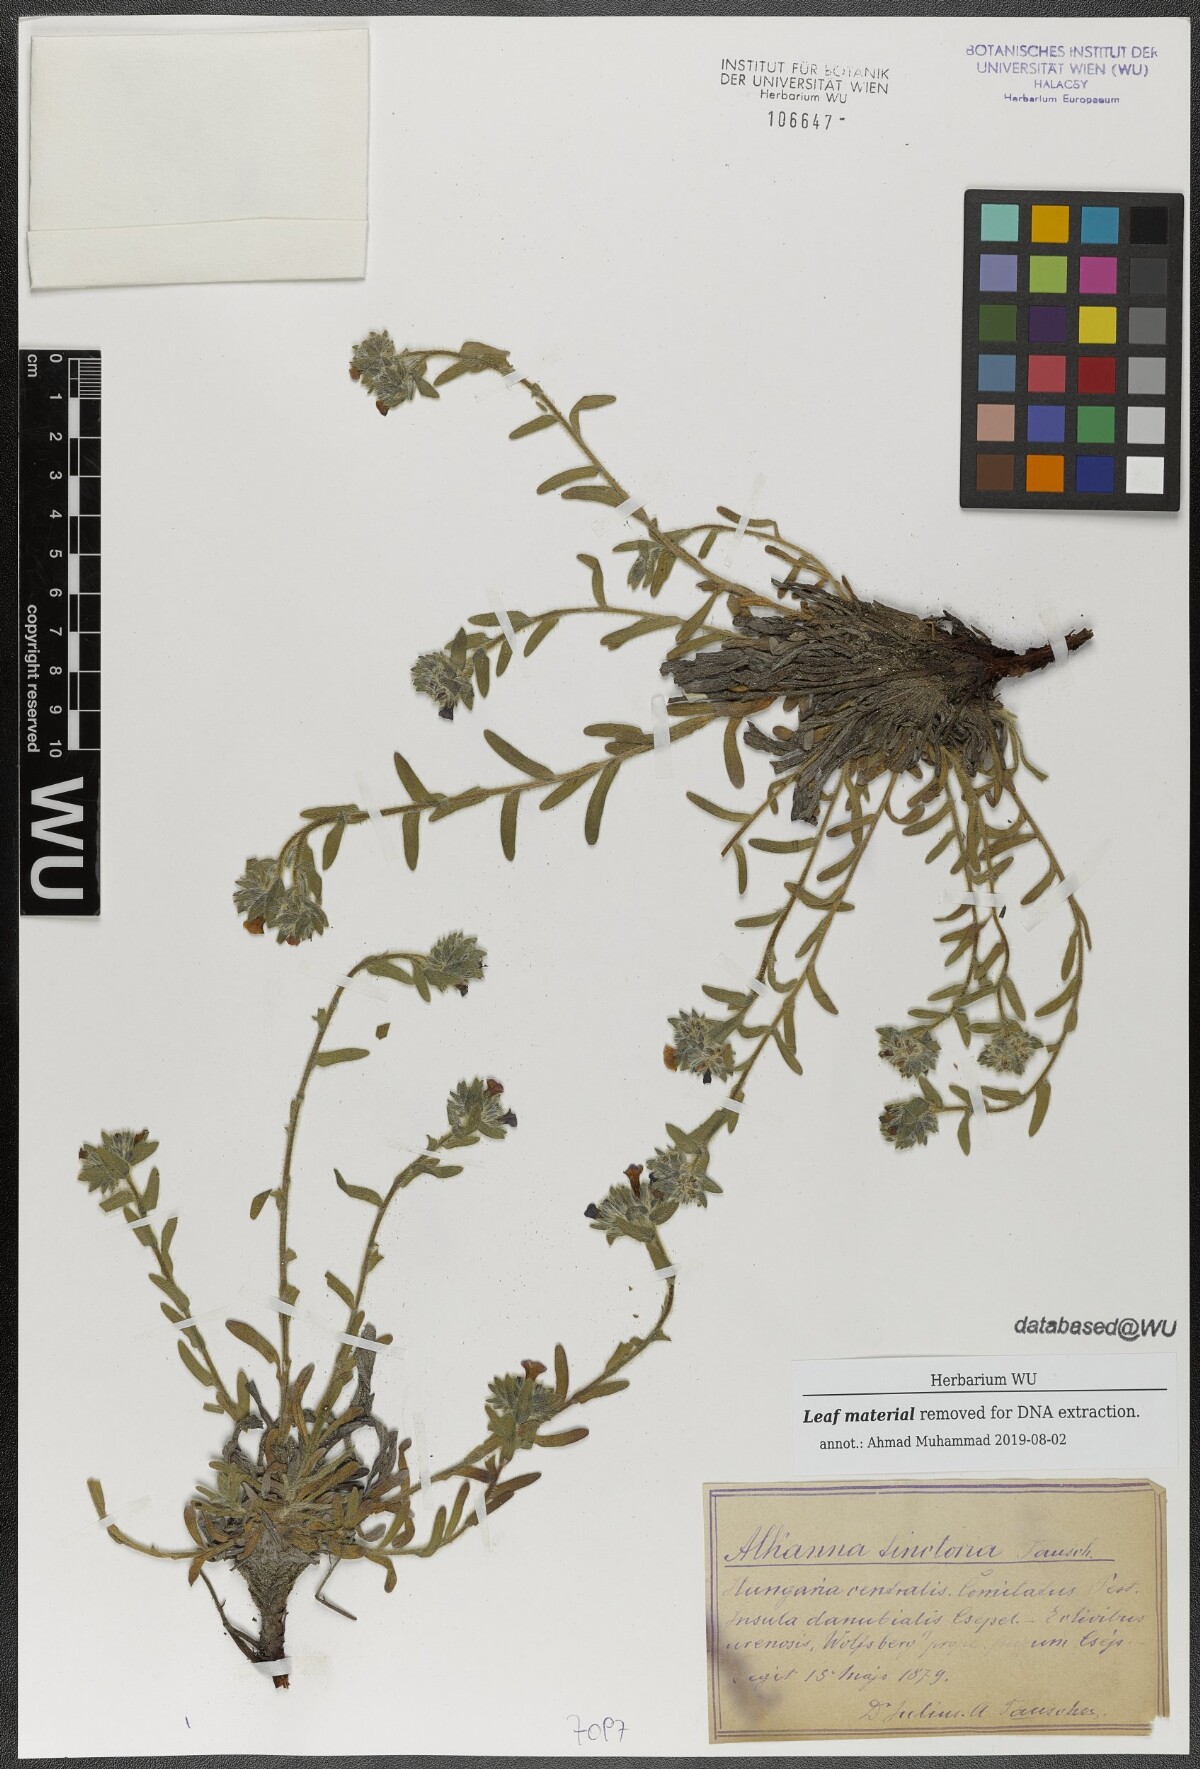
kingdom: Plantae
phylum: Tracheophyta
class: Magnoliopsida
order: Boraginales
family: Boraginaceae
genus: Alkanna
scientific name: Alkanna tinctoria
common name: Dyer's-alkanet
